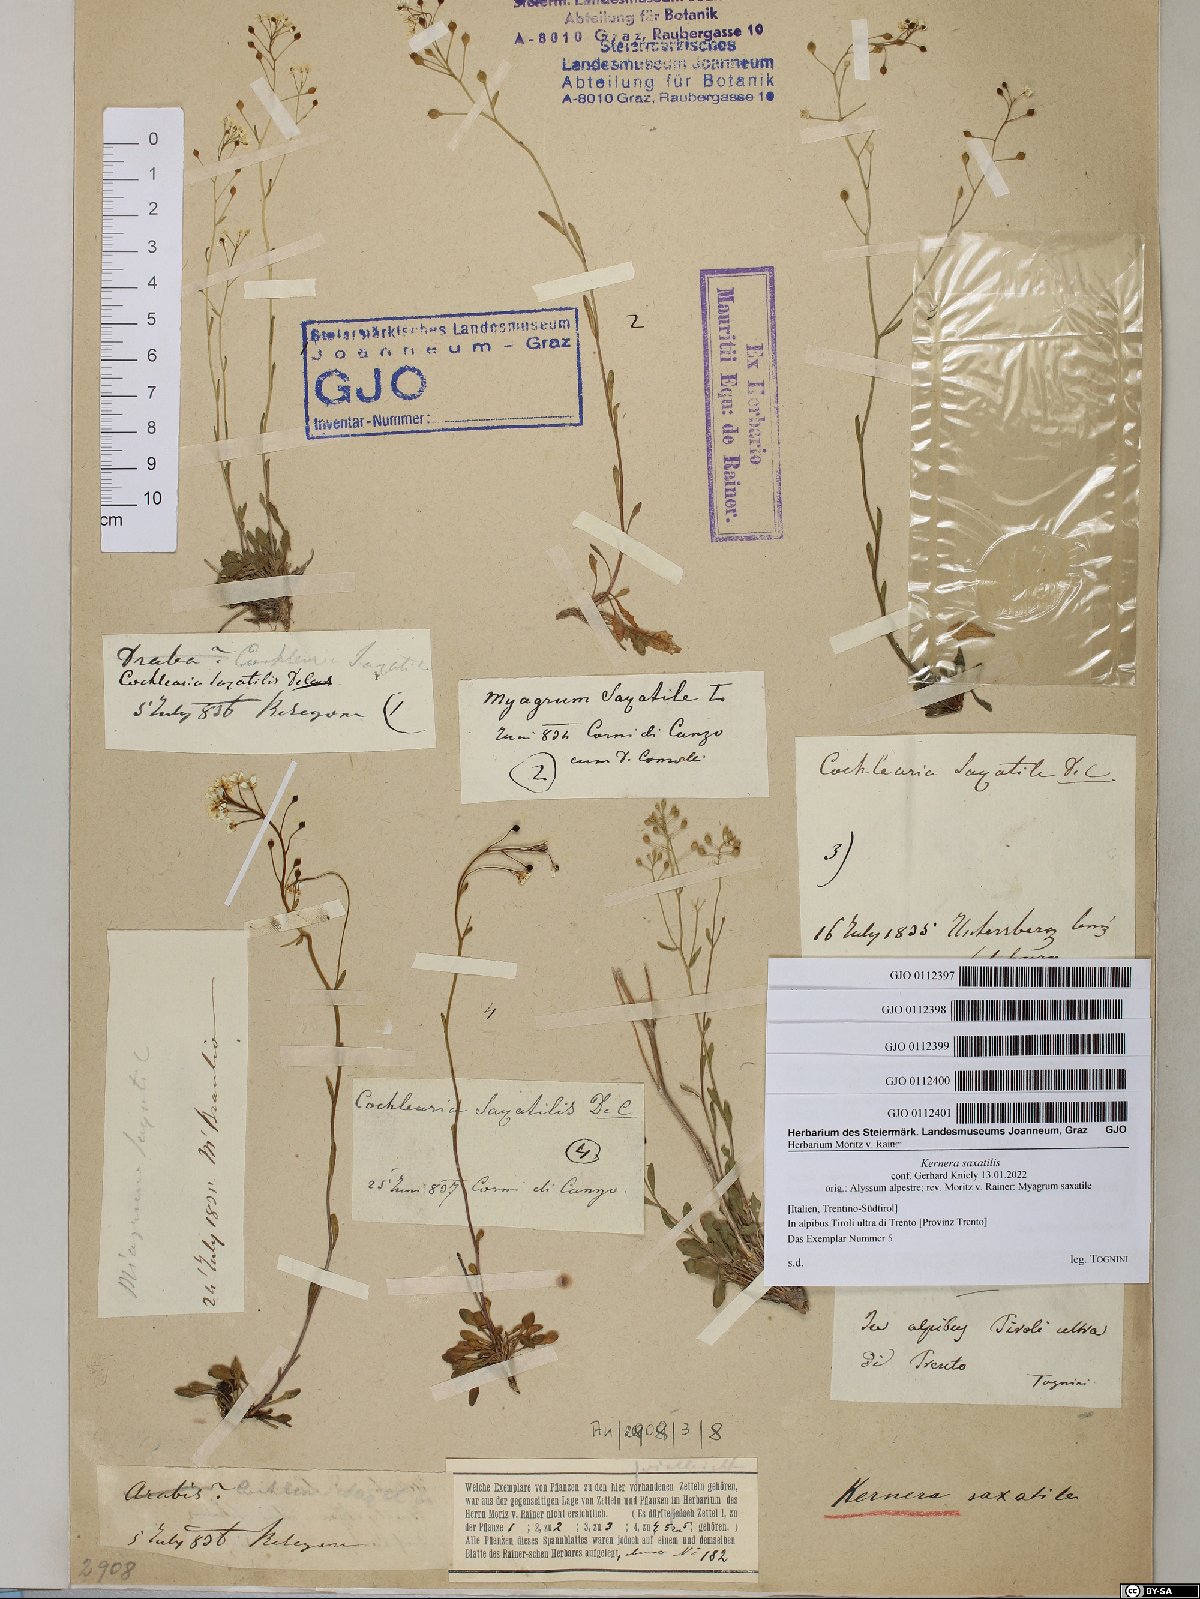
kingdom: Plantae
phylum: Tracheophyta
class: Magnoliopsida
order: Brassicales
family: Brassicaceae
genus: Kernera
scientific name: Kernera saxatilis
